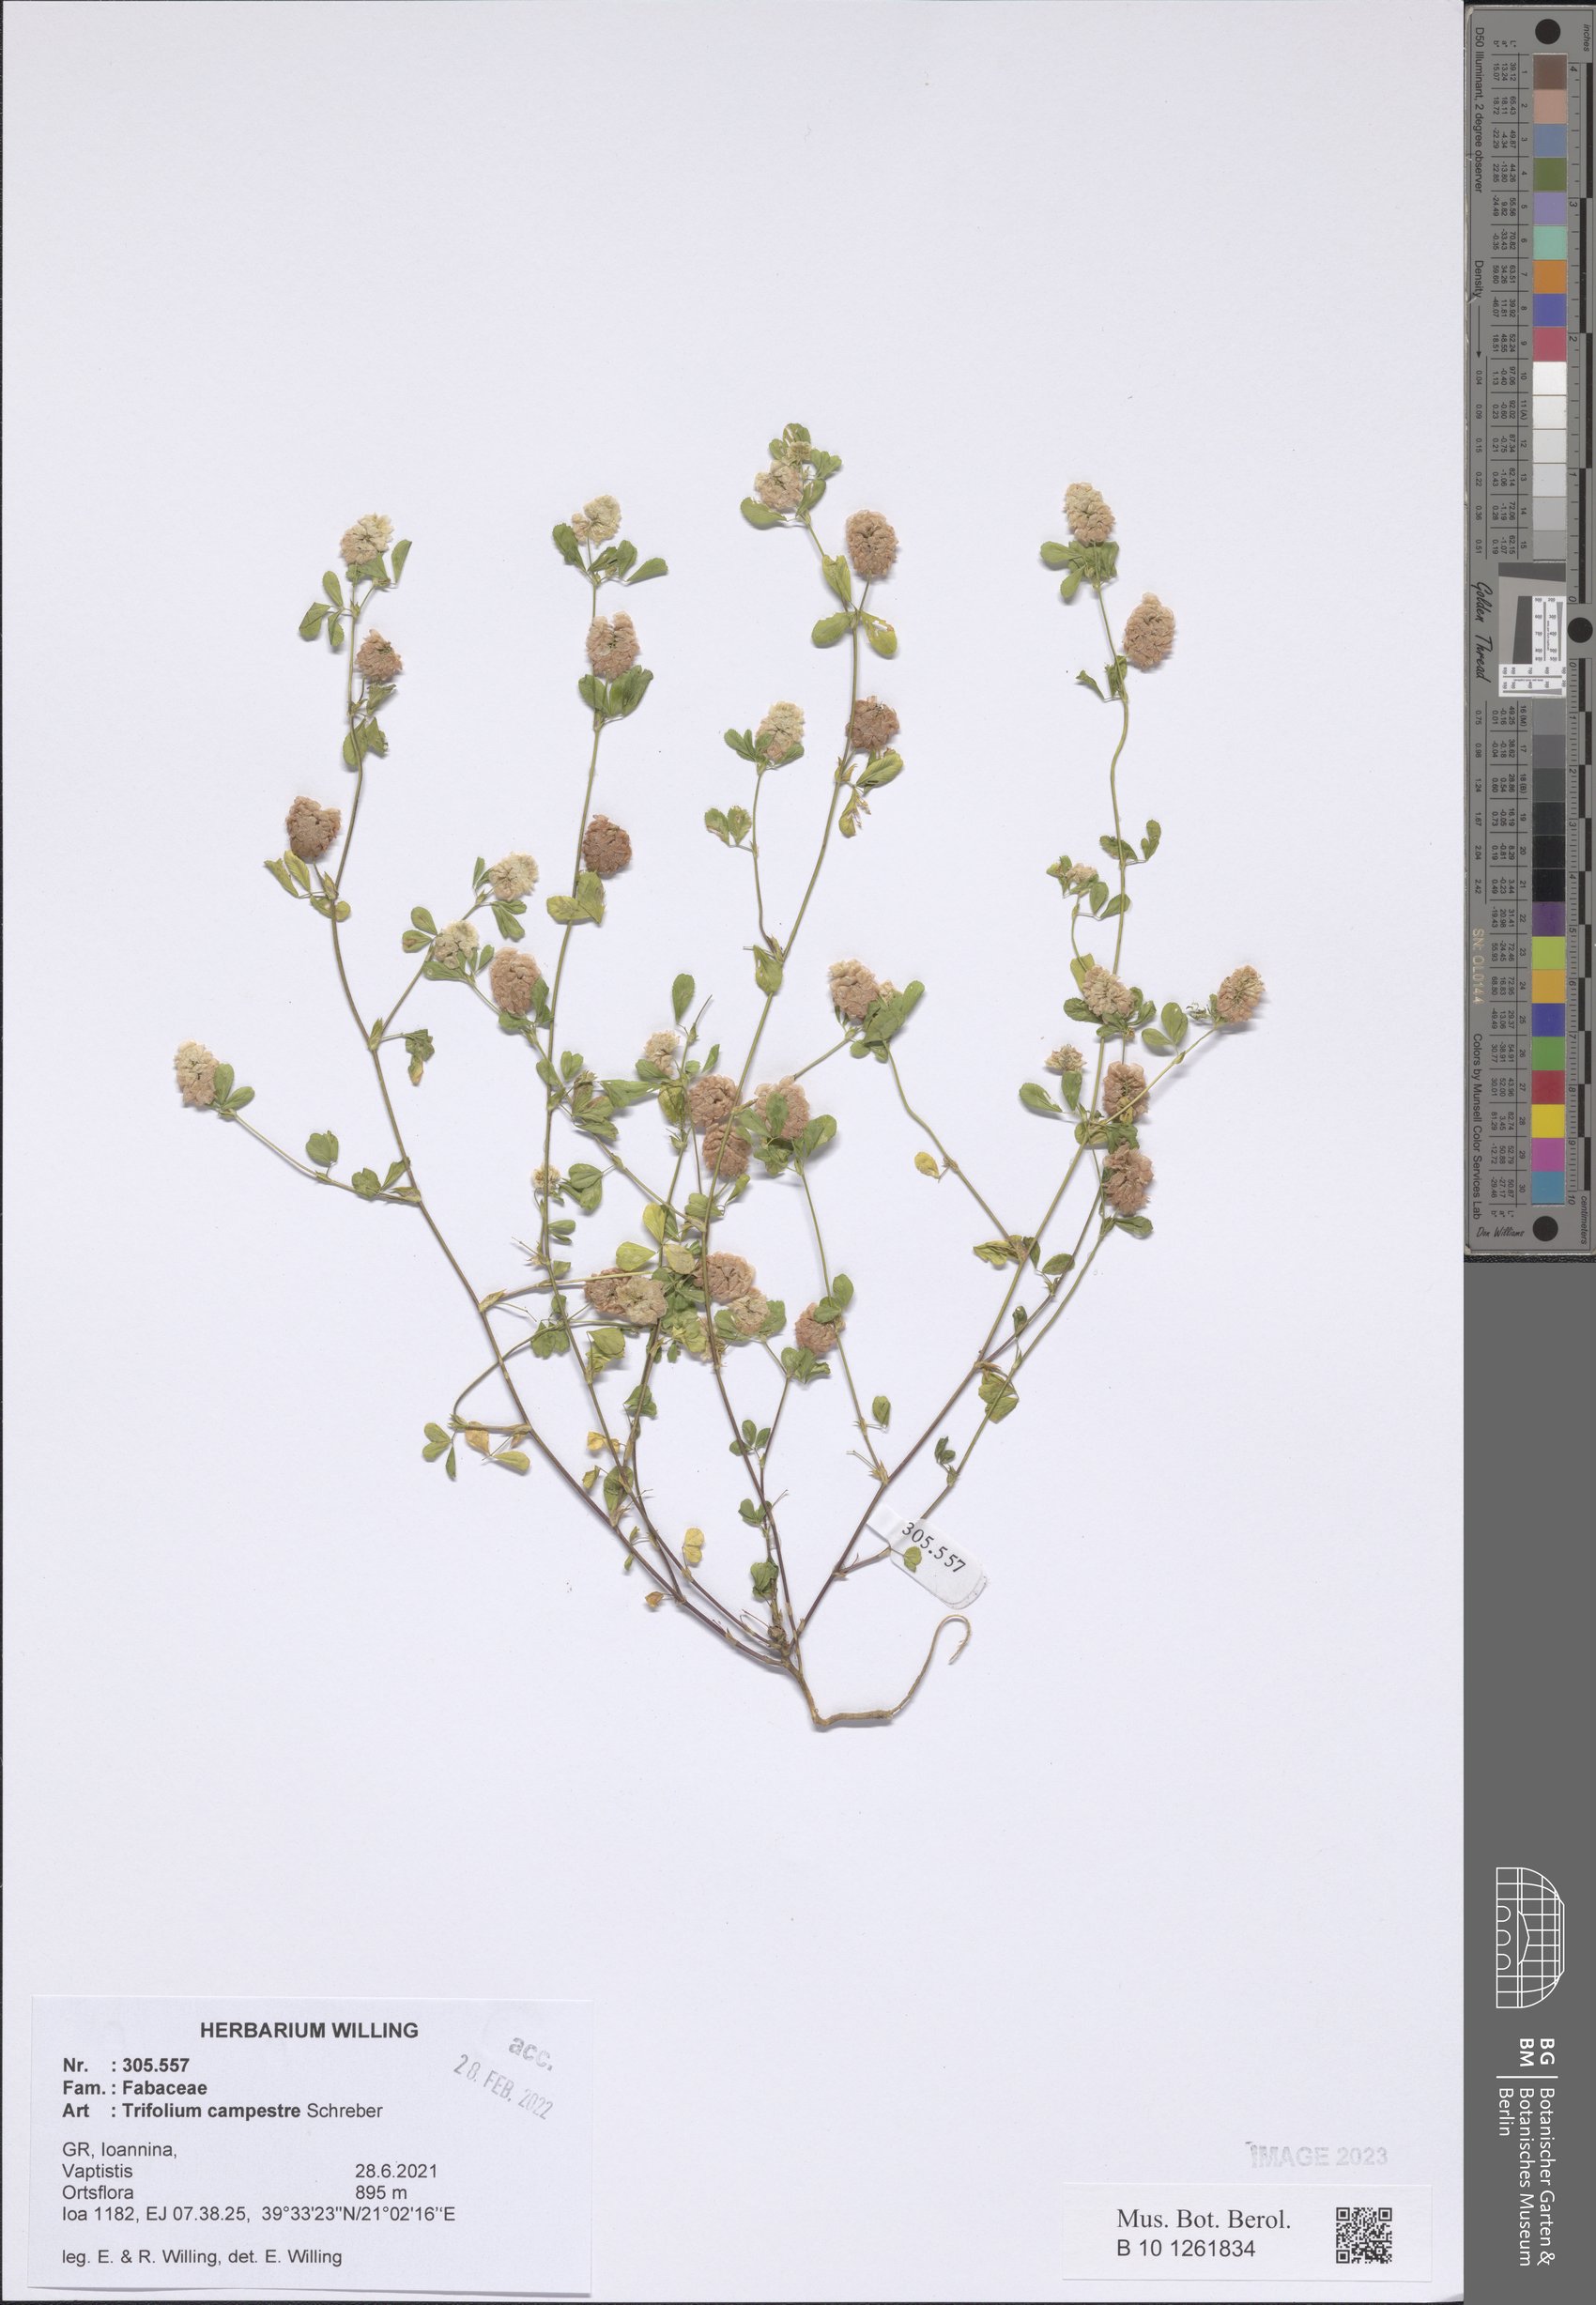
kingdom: Plantae
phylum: Tracheophyta
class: Magnoliopsida
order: Fabales
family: Fabaceae
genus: Trifolium
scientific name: Trifolium campestre
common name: Field clover
